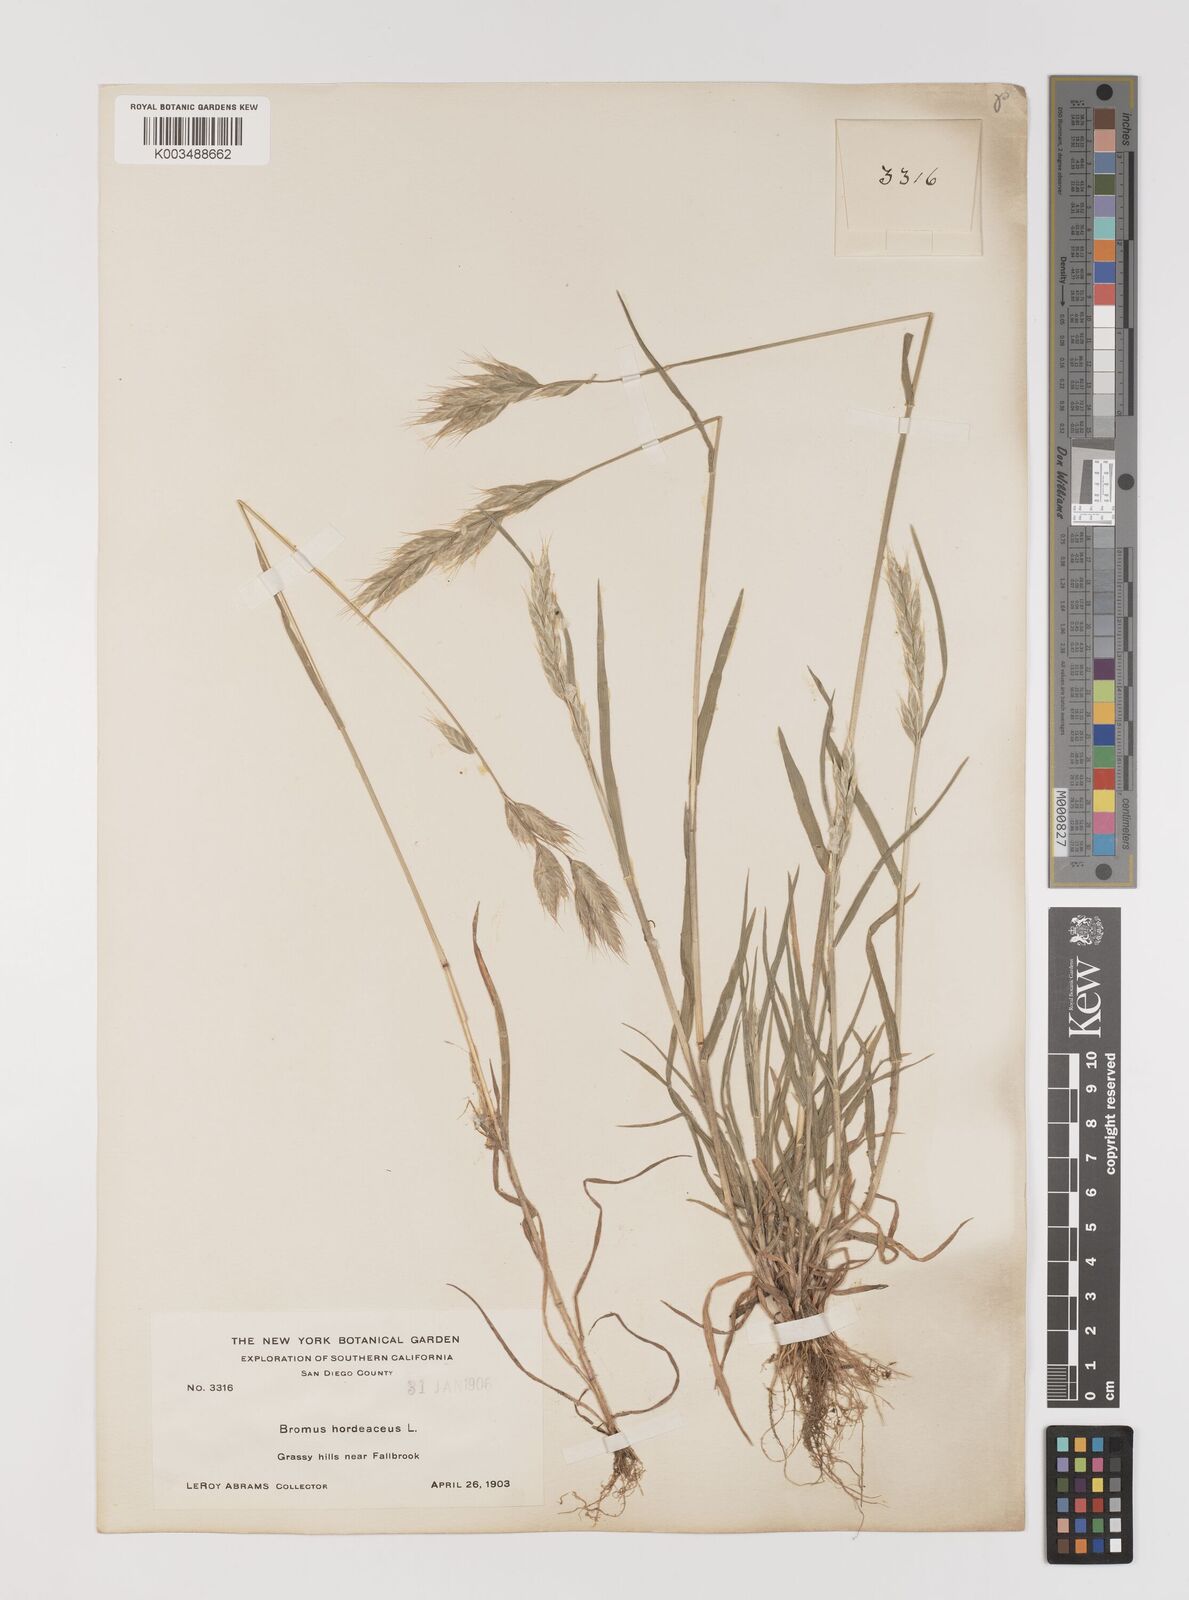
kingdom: Plantae
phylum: Tracheophyta
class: Liliopsida
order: Poales
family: Poaceae
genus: Bromus
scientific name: Bromus hordeaceus
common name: Soft brome
